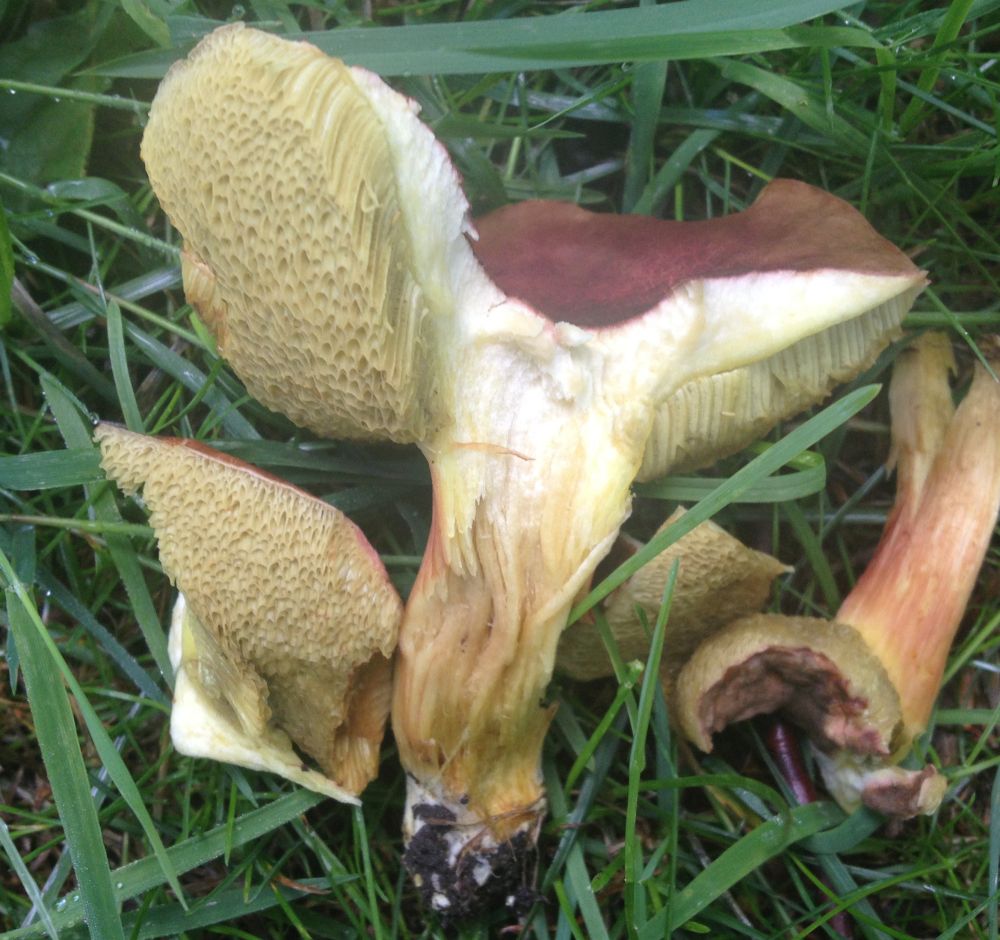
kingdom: Fungi
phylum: Basidiomycota
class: Agaricomycetes
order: Boletales
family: Boletaceae
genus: Hortiboletus
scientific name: Hortiboletus engelii
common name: fersken-rørhat
